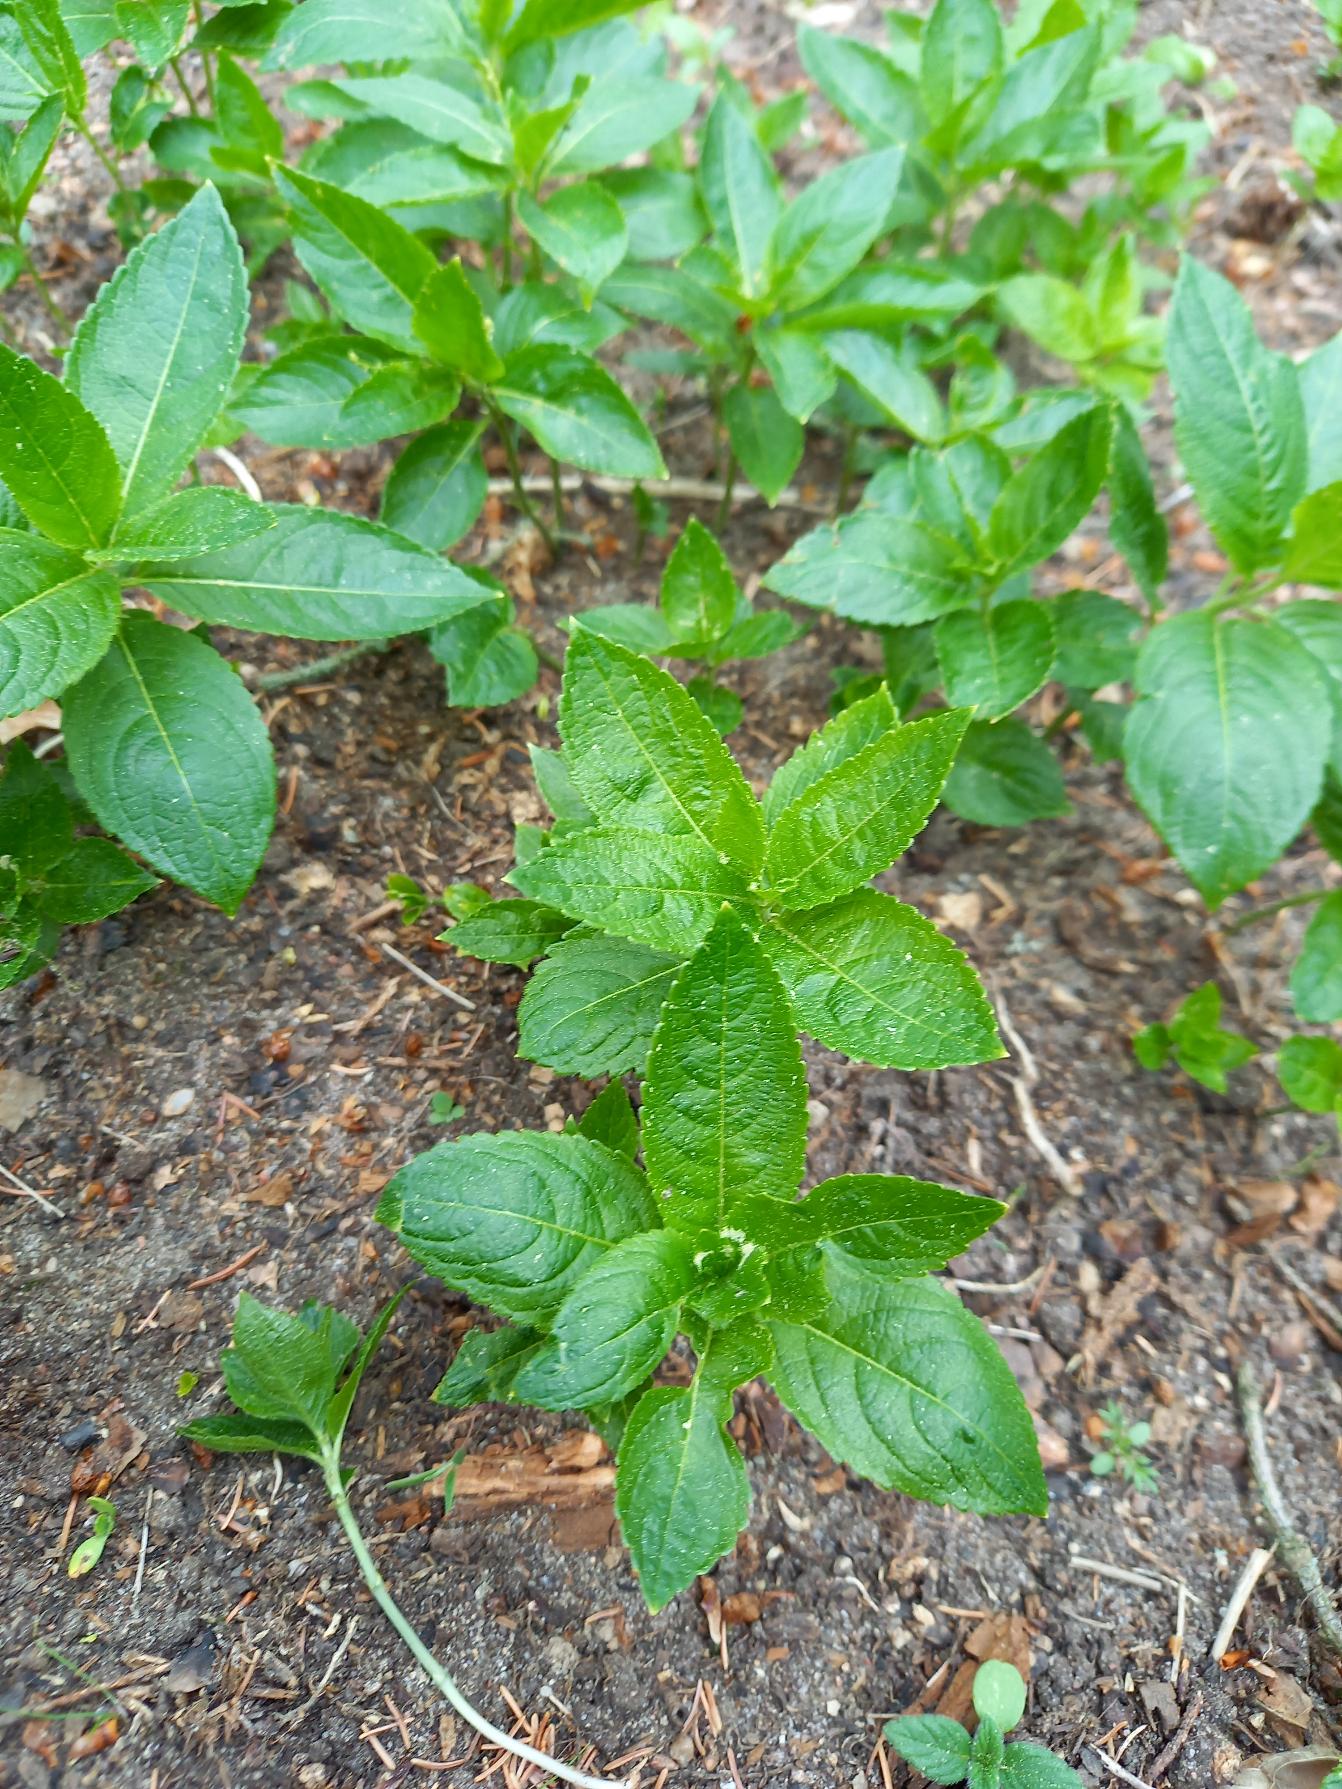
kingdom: Plantae
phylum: Tracheophyta
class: Magnoliopsida
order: Malpighiales
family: Euphorbiaceae
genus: Mercurialis
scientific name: Mercurialis perennis
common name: Almindelig bingelurt
